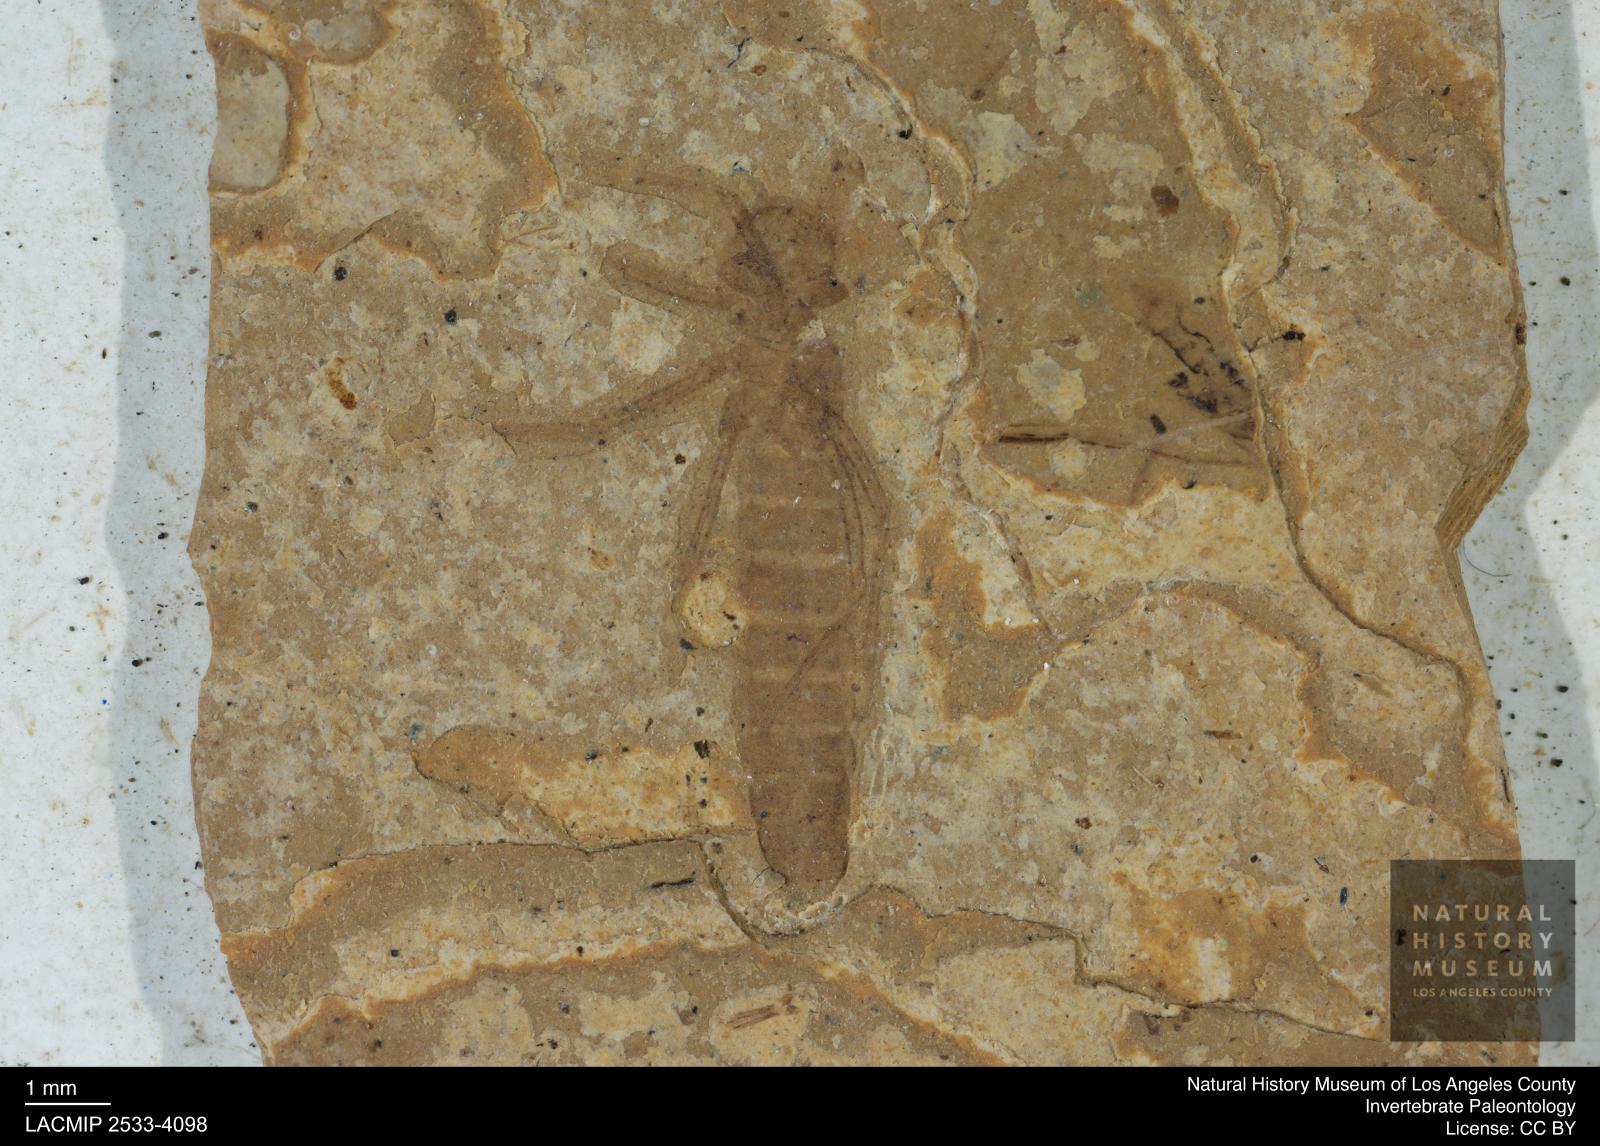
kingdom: Animalia
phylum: Arthropoda
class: Insecta
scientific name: Insecta
